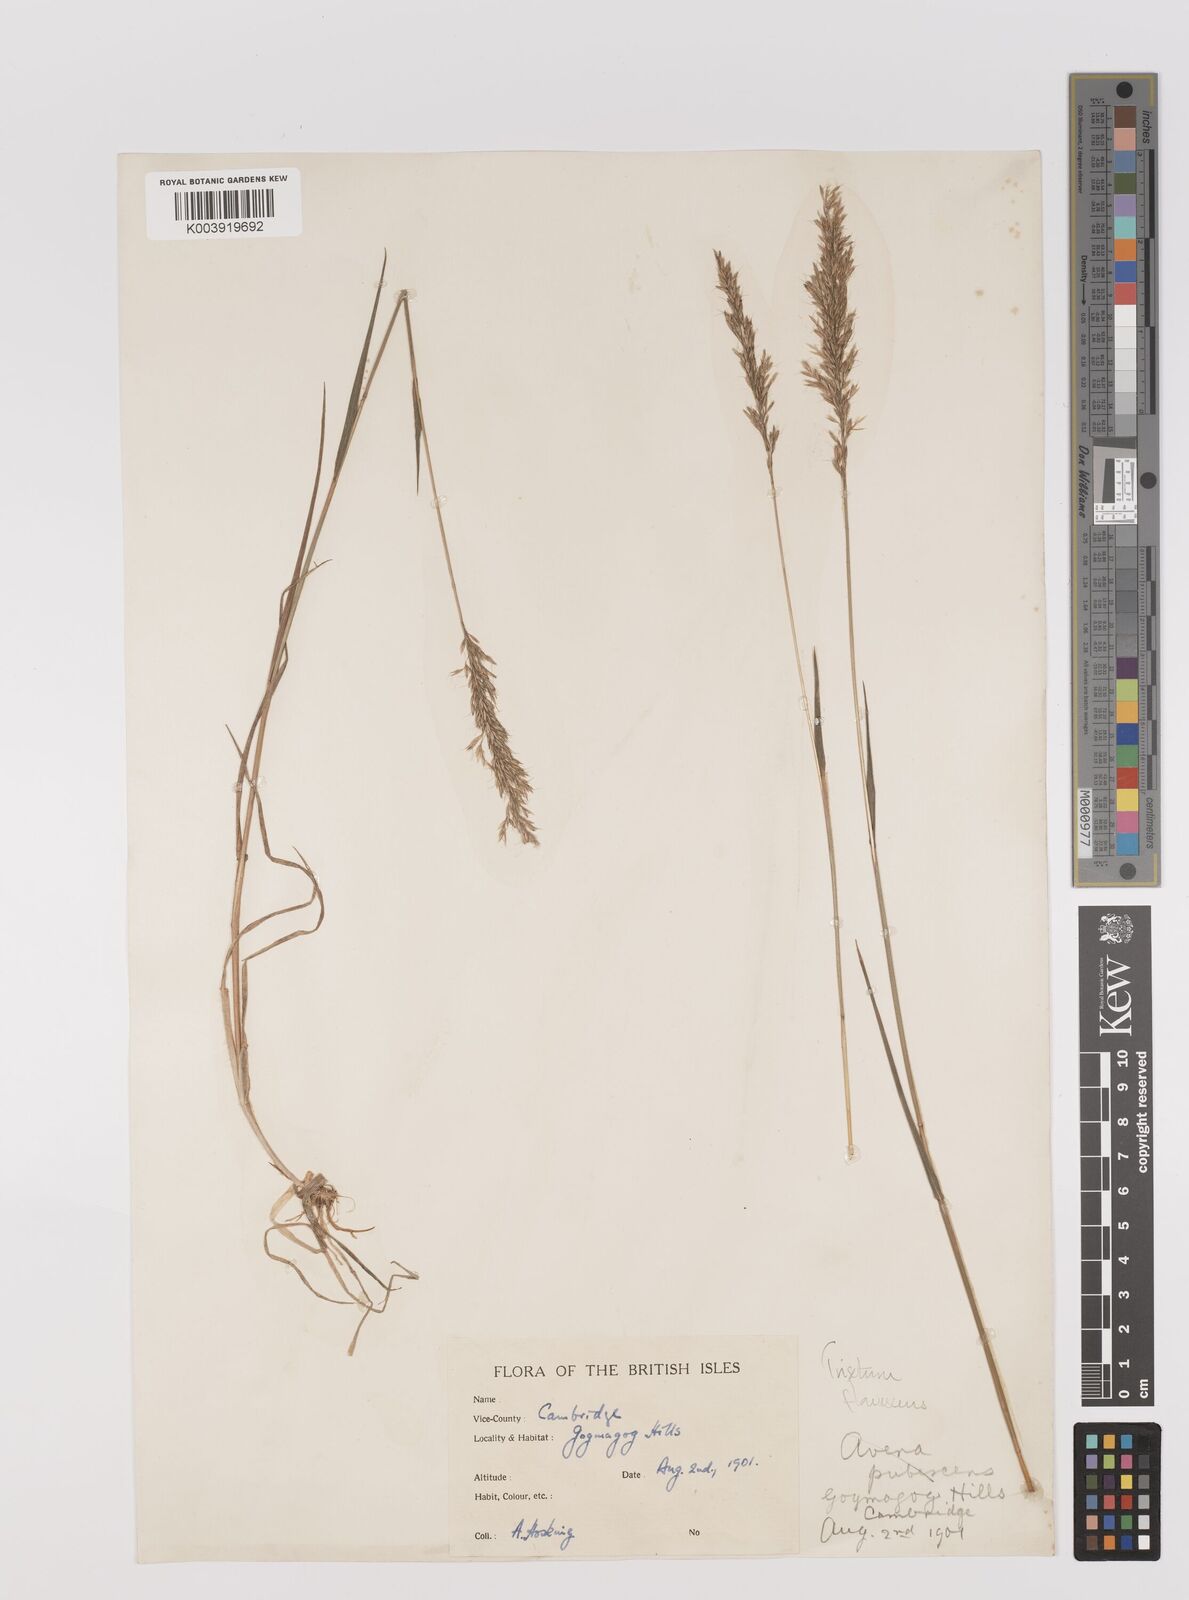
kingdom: Plantae
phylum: Tracheophyta
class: Liliopsida
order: Poales
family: Poaceae
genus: Trisetum
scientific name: Trisetum flavescens
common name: Yellow oat-grass
